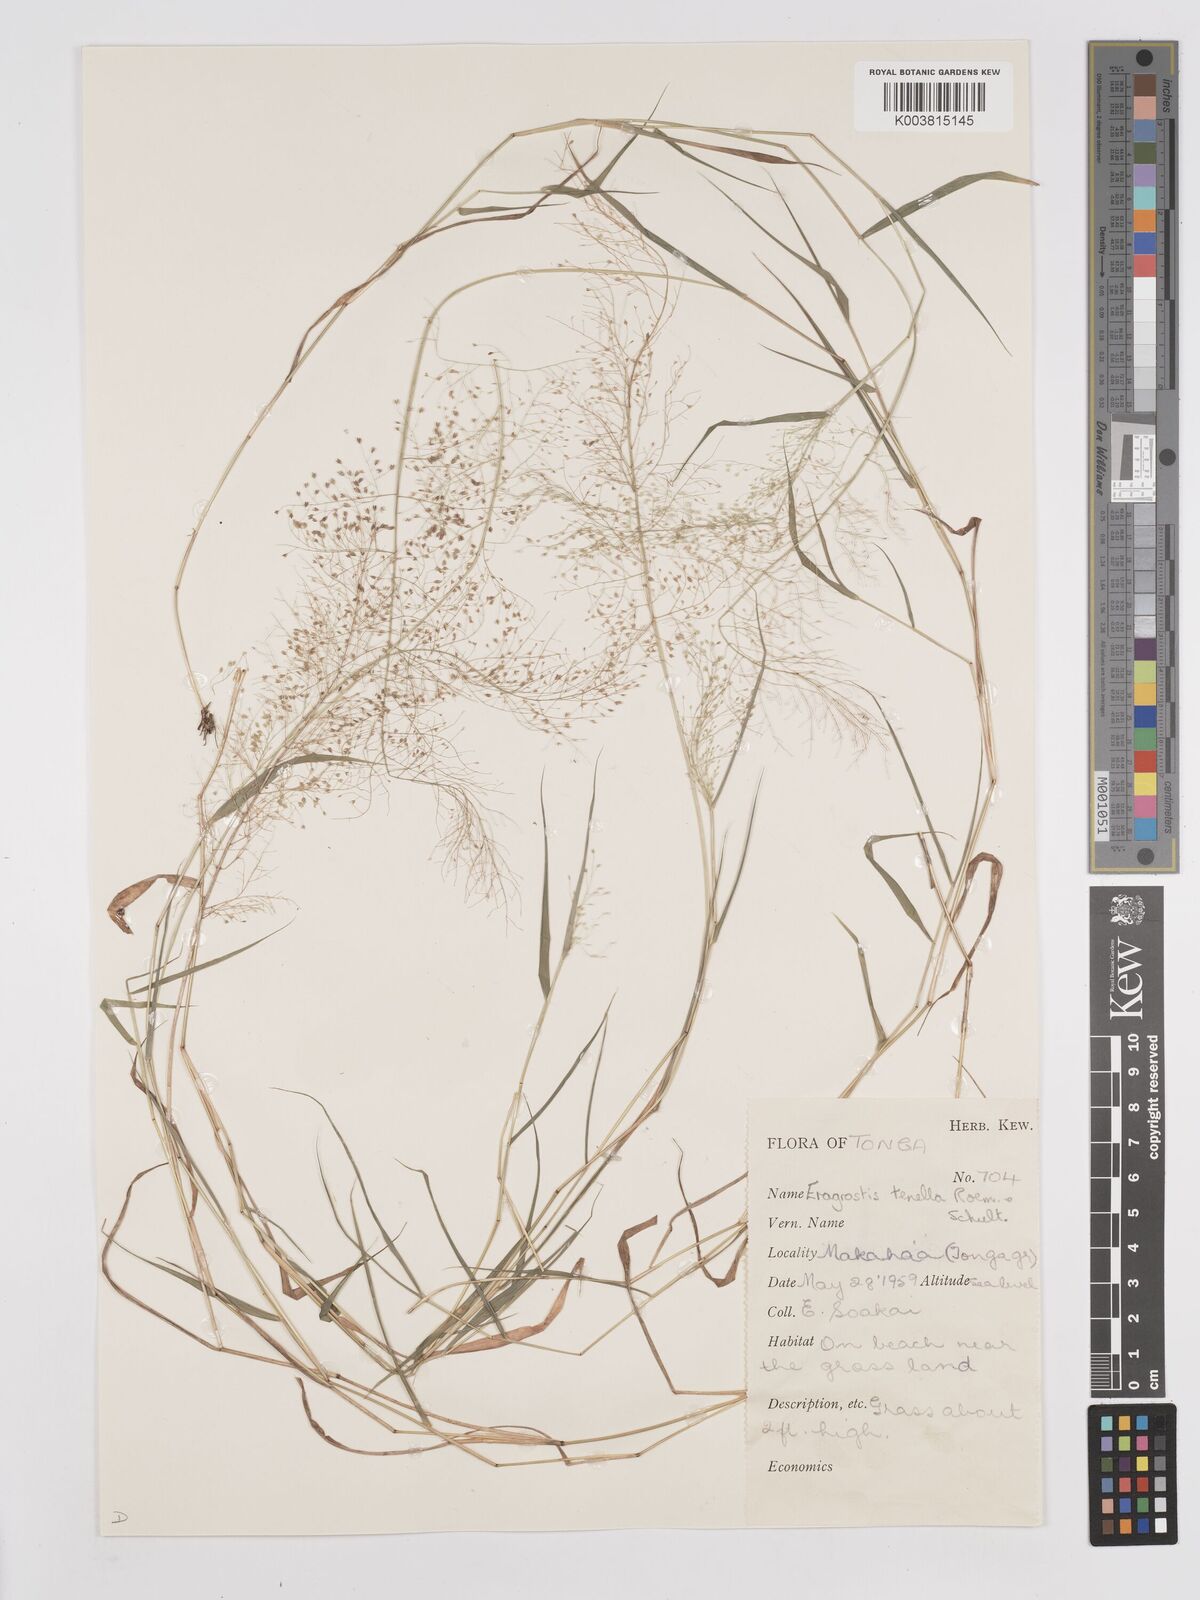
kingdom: Plantae
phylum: Tracheophyta
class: Liliopsida
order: Poales
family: Poaceae
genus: Eragrostis
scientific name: Eragrostis tenella
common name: Japanese lovegrass
